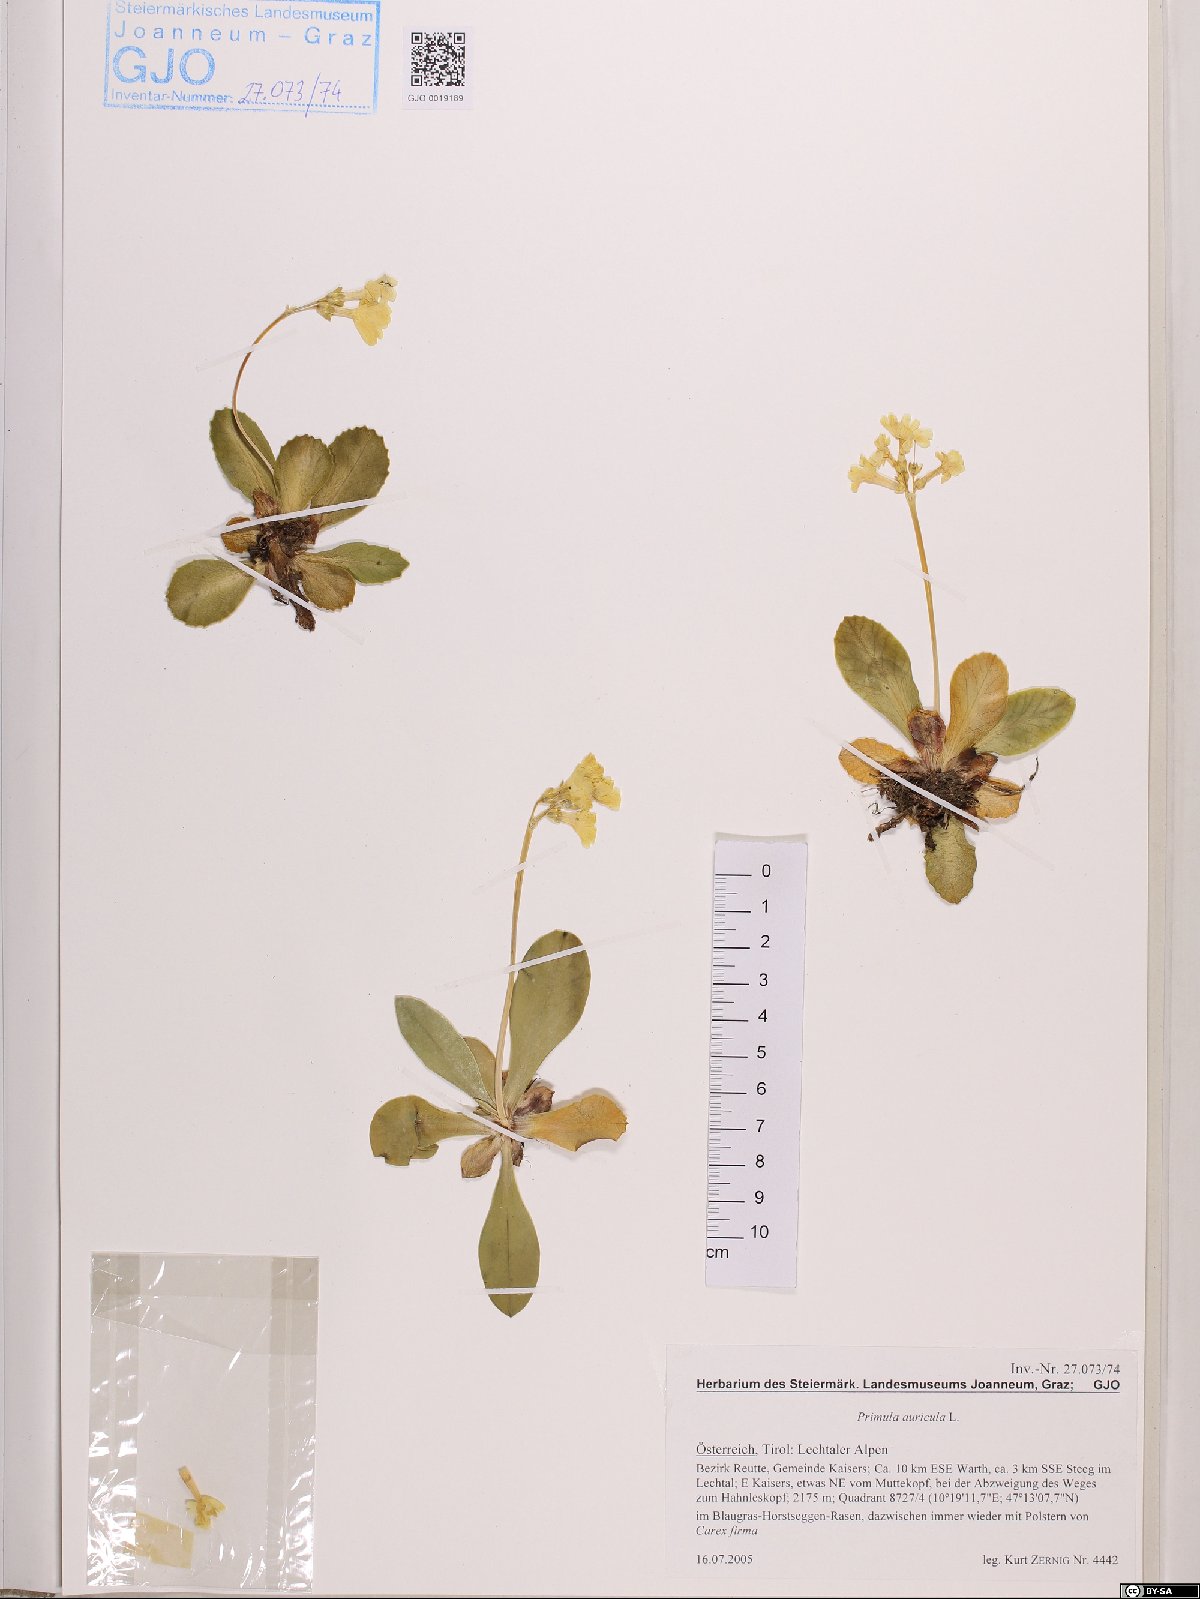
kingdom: Plantae
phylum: Tracheophyta
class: Magnoliopsida
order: Ericales
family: Primulaceae
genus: Primula
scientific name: Primula auricula
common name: Auricula
